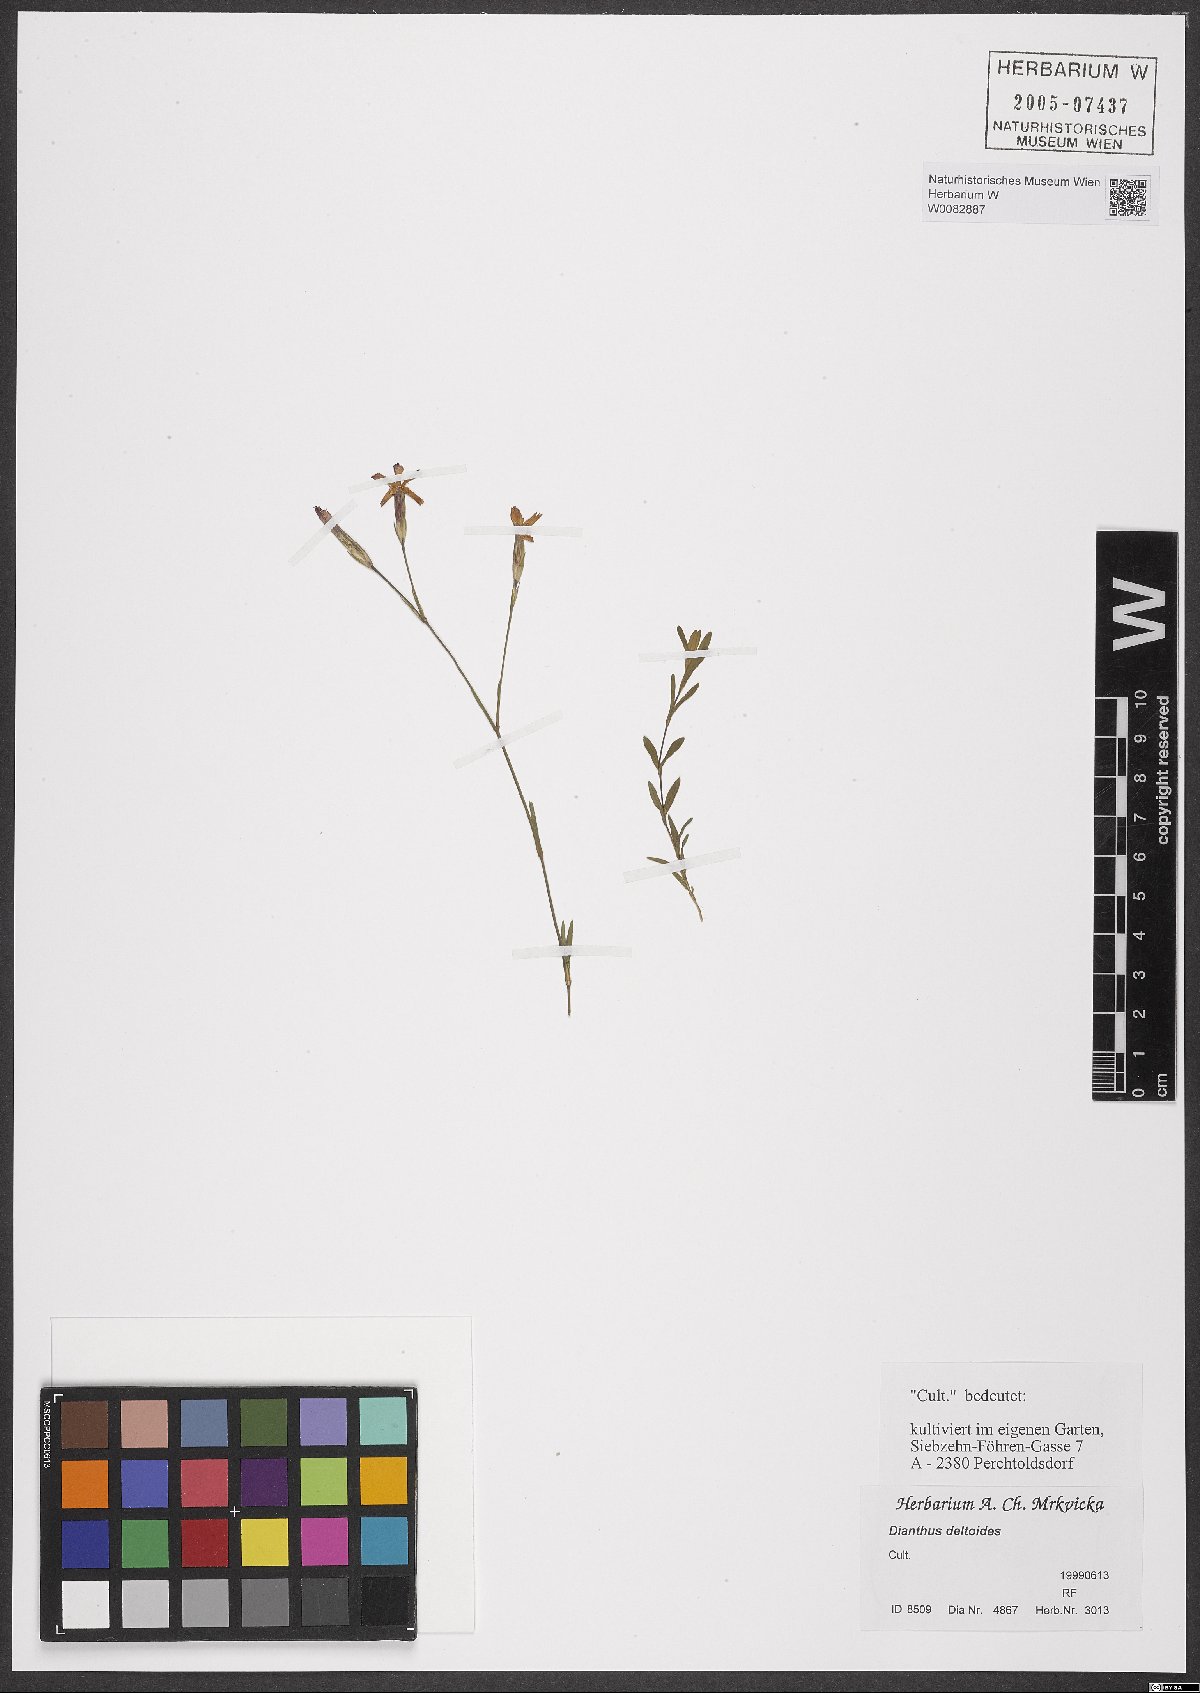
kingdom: Plantae
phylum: Tracheophyta
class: Magnoliopsida
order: Caryophyllales
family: Caryophyllaceae
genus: Dianthus
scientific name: Dianthus deltoides
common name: Maiden pink
